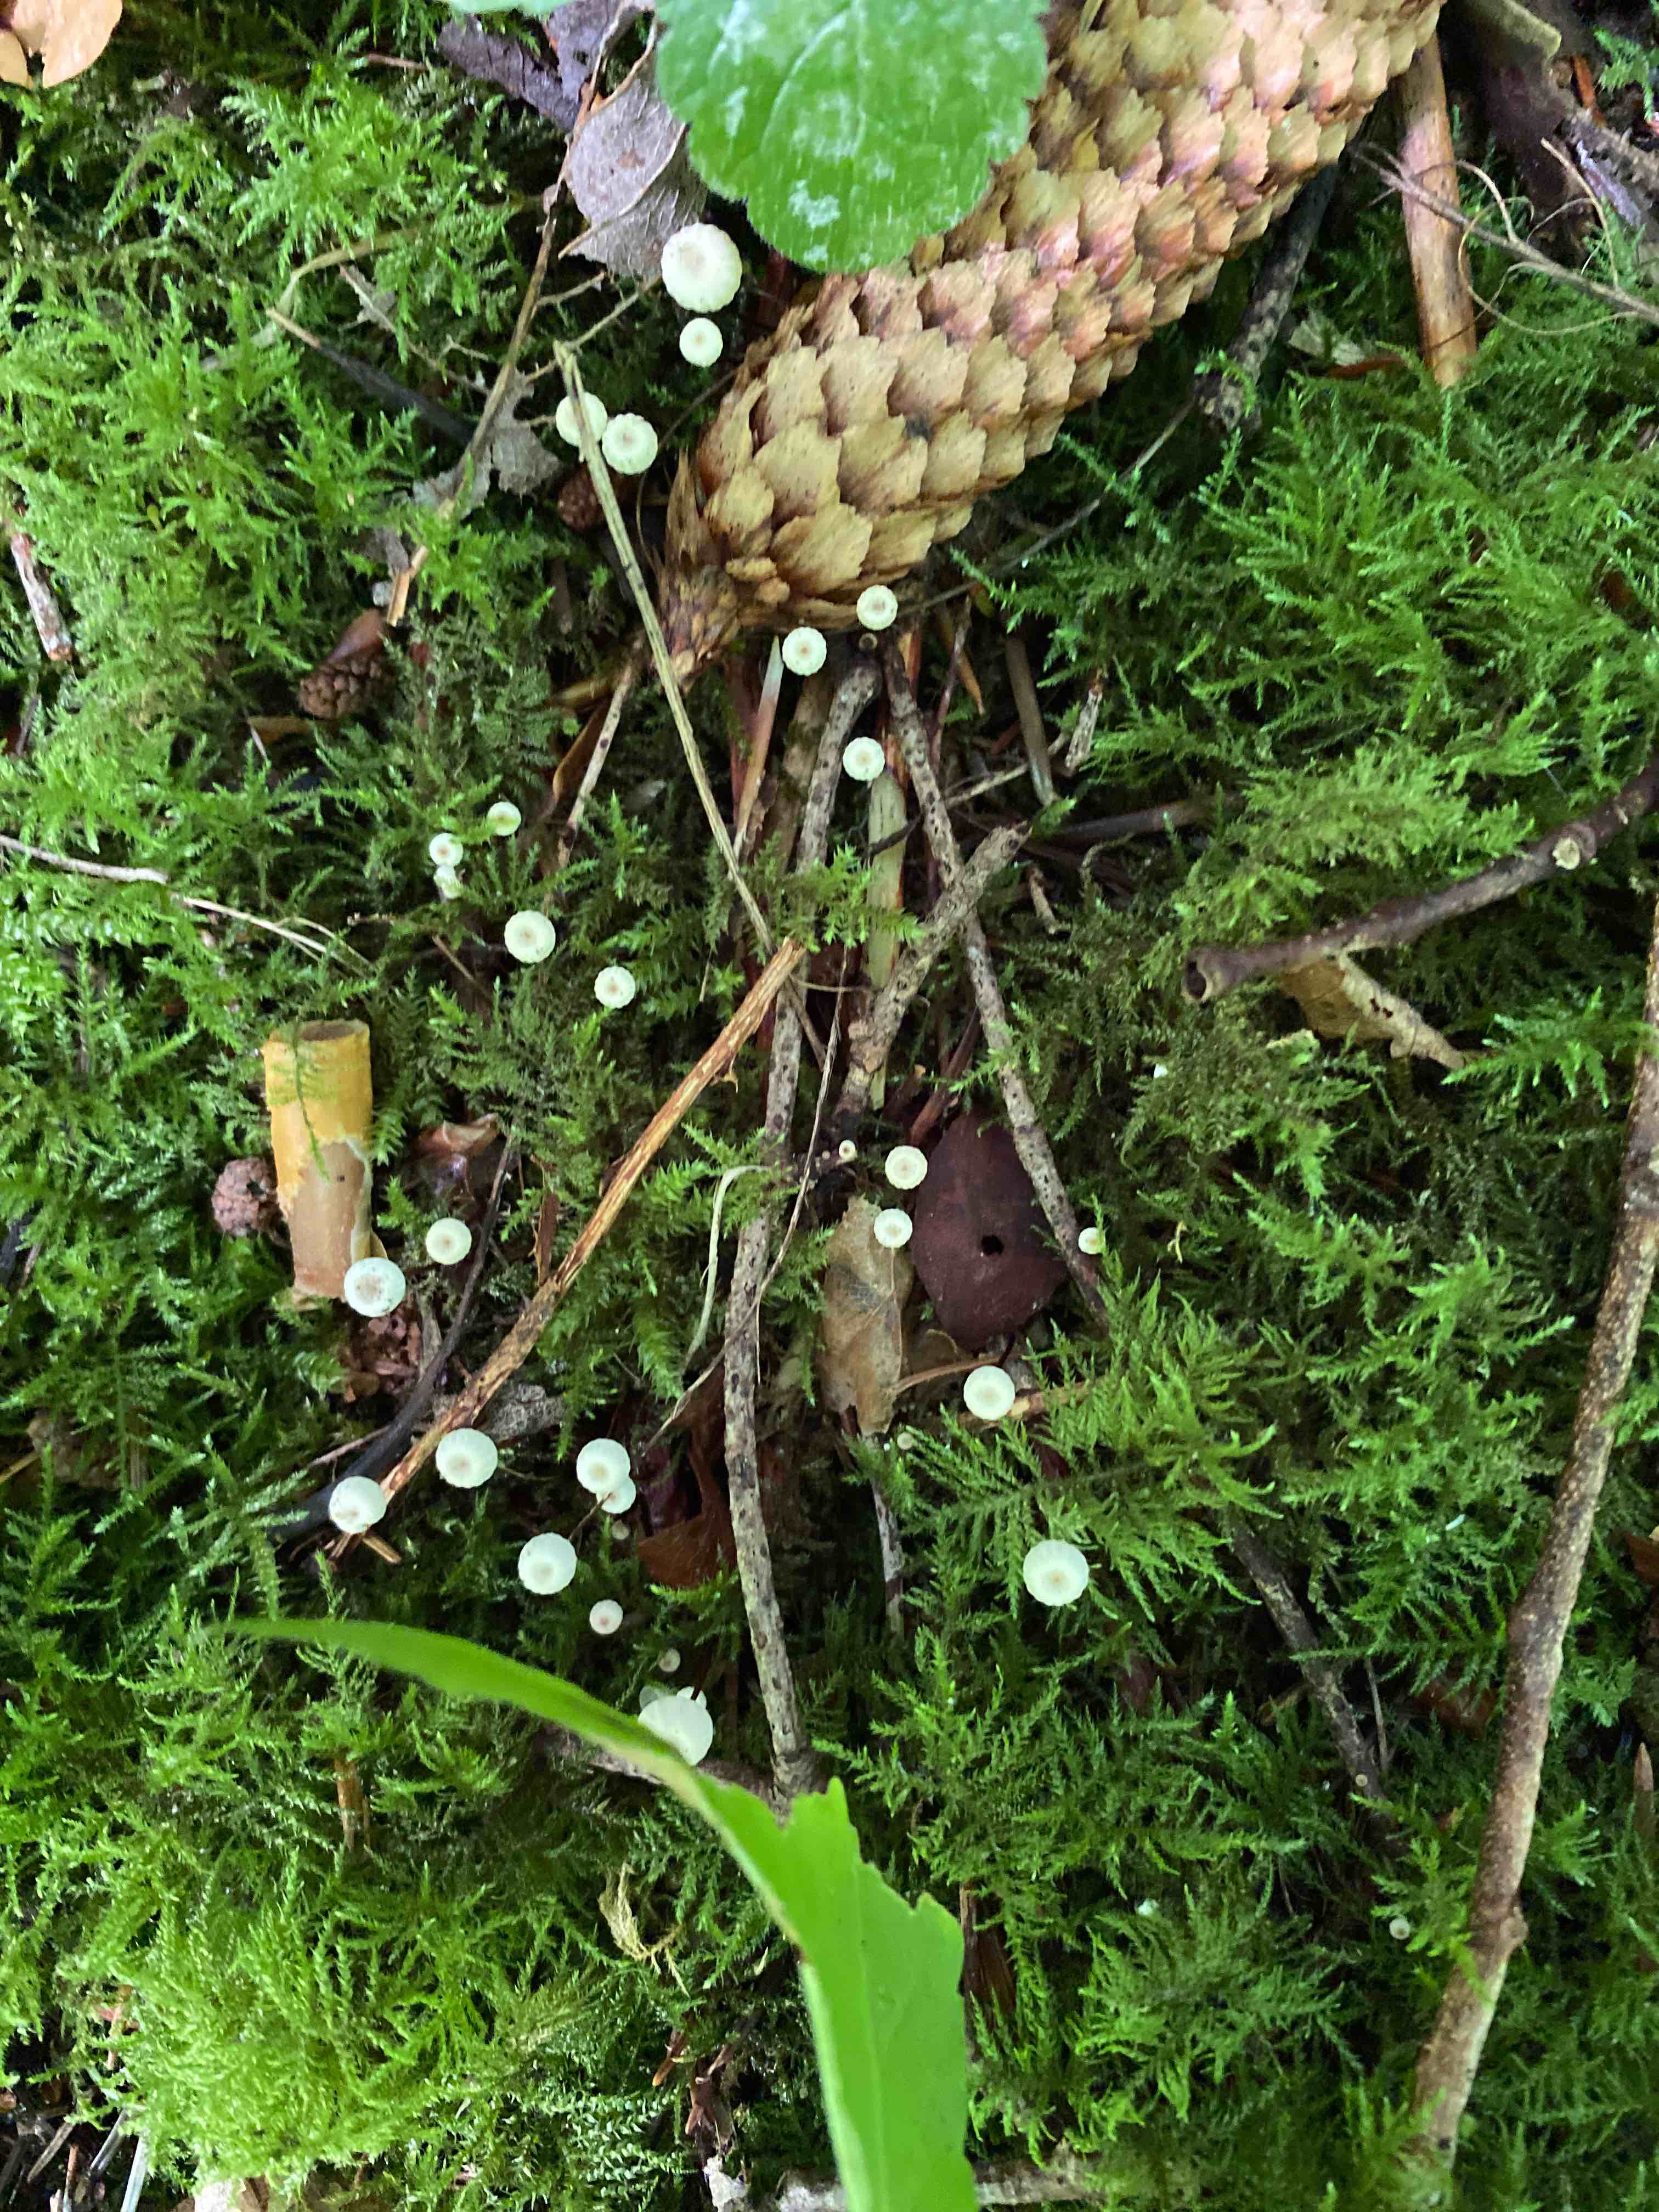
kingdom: Fungi
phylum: Basidiomycota
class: Agaricomycetes
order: Agaricales
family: Marasmiaceae
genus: Marasmius
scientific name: Marasmius rotula
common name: hjul-bruskhat
